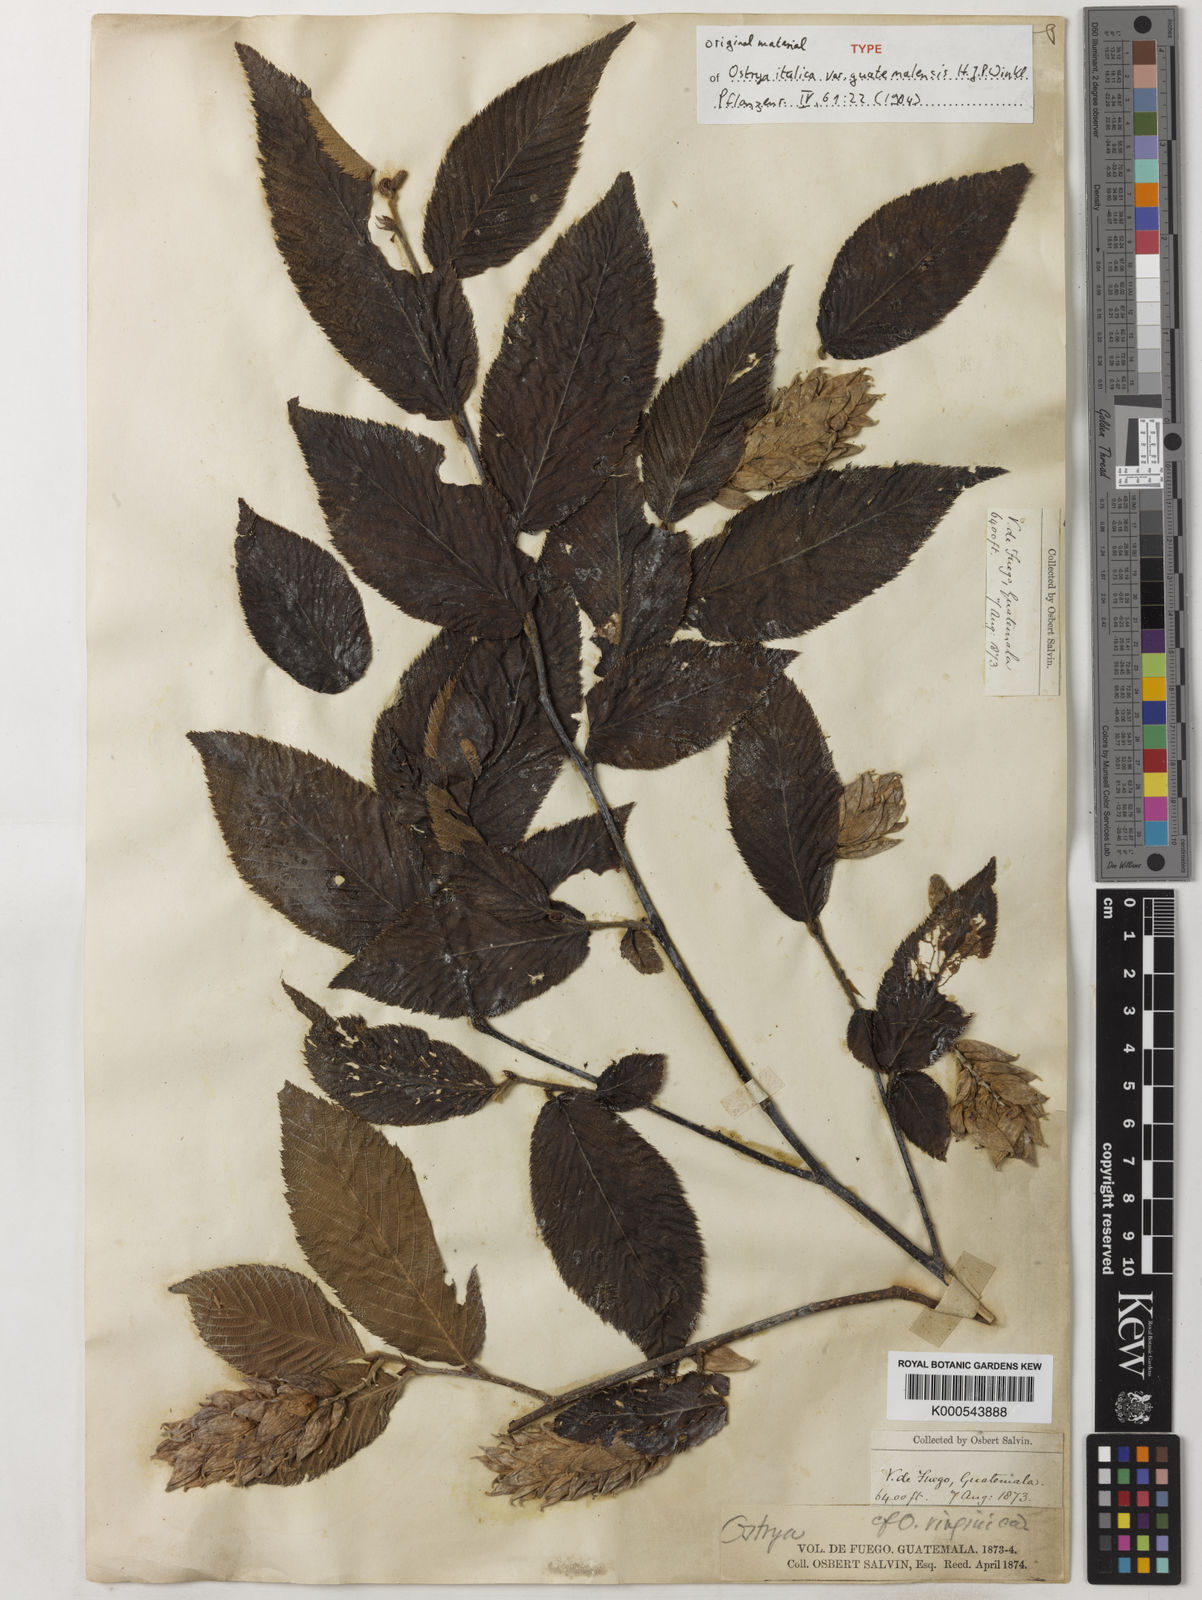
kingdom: Plantae
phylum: Tracheophyta
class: Magnoliopsida
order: Fagales
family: Betulaceae
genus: Ostrya
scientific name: Ostrya virginiana
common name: Ironwood
